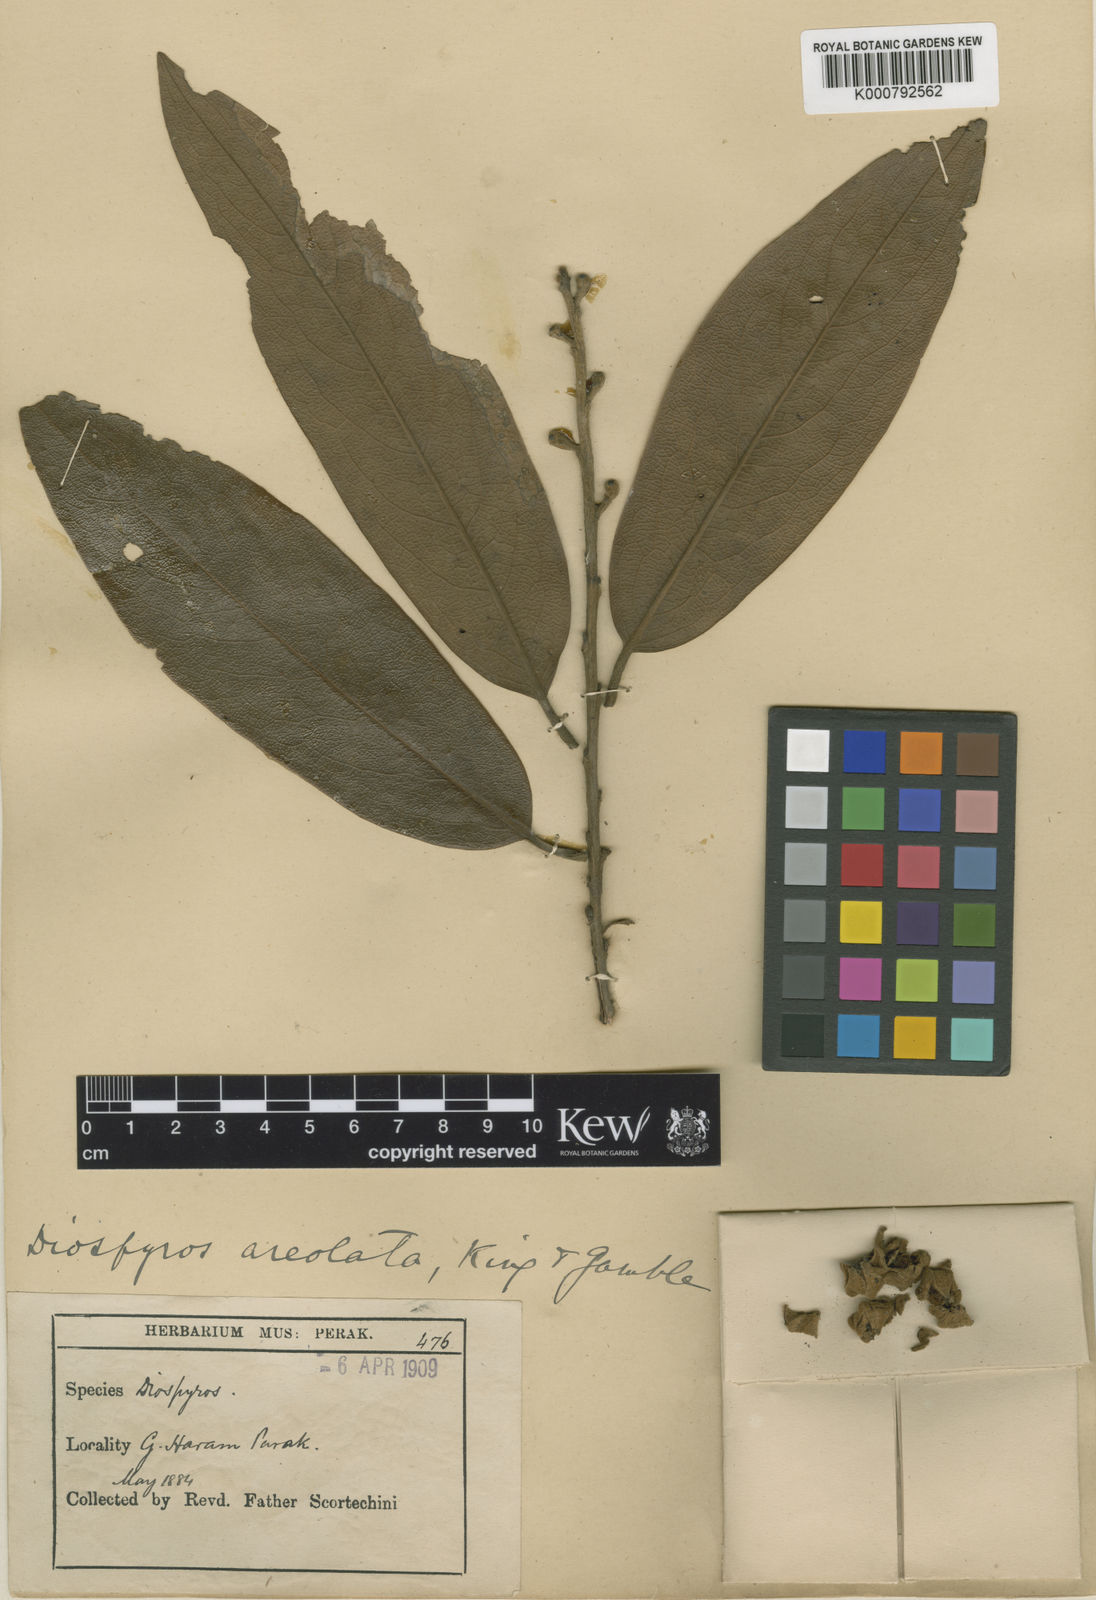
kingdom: Plantae
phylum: Tracheophyta
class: Magnoliopsida
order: Ericales
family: Ebenaceae
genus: Diospyros
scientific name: Diospyros areolata
